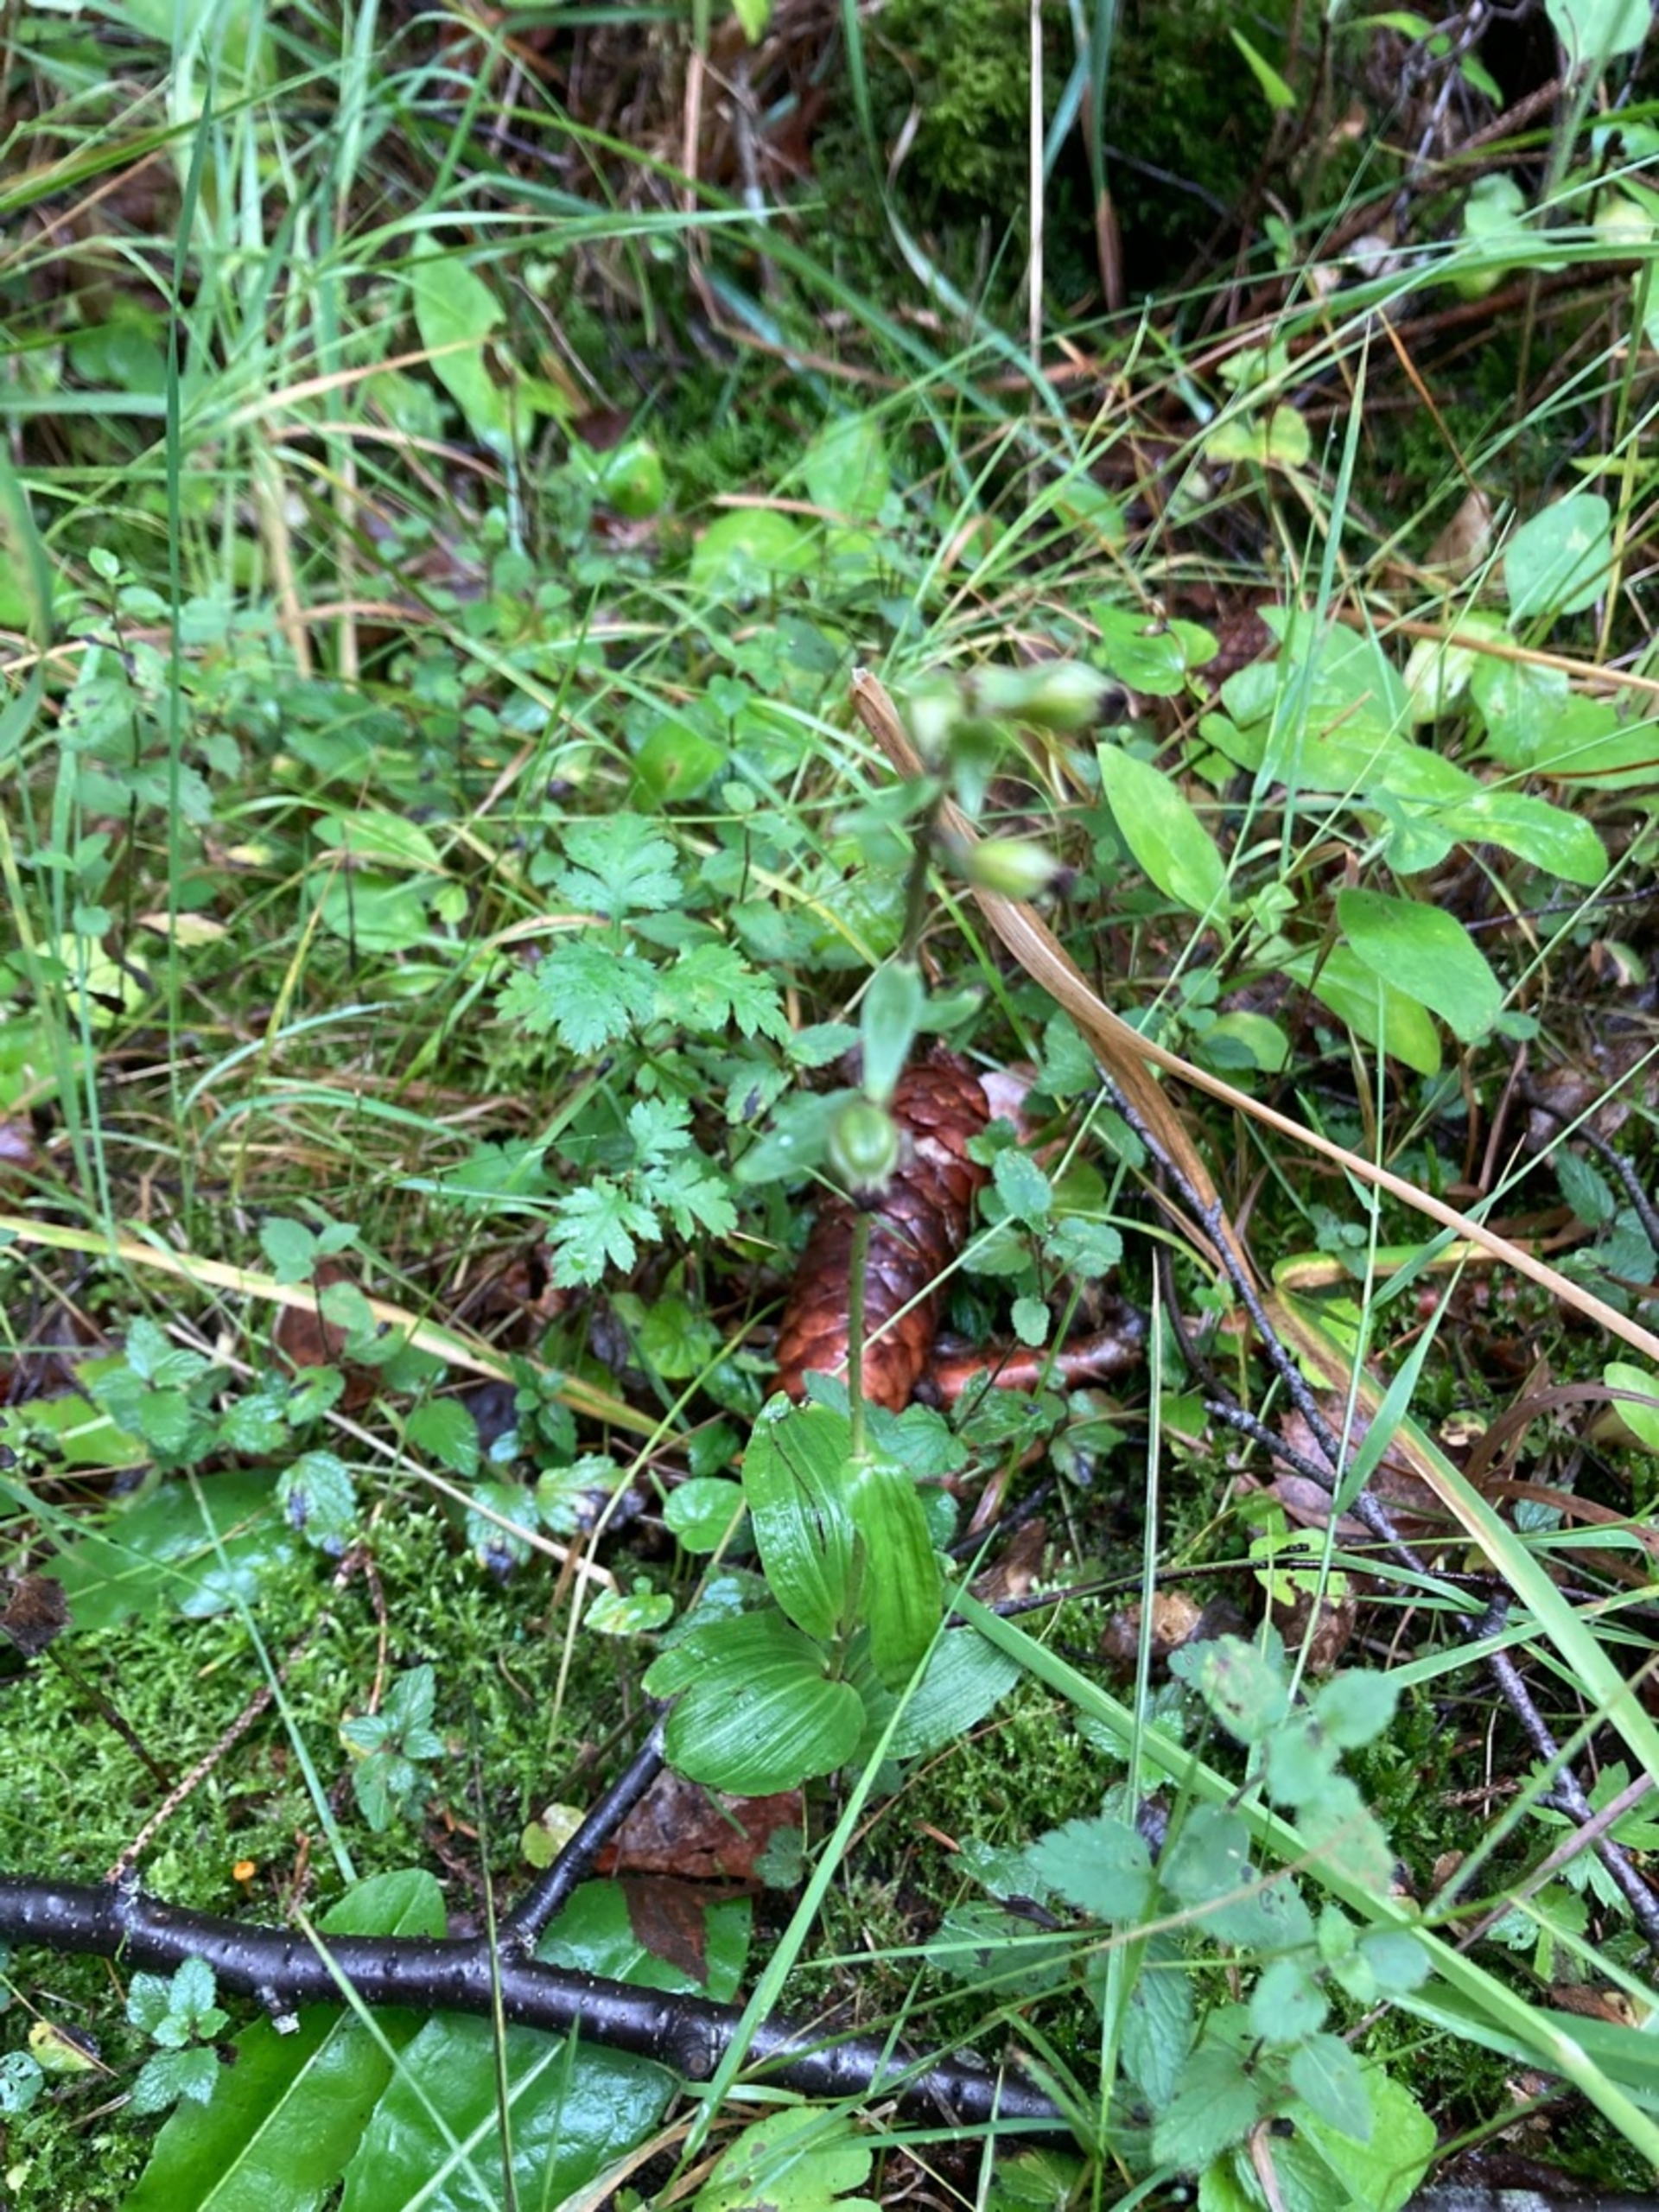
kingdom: Plantae
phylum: Tracheophyta
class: Liliopsida
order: Asparagales
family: Orchidaceae
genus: Epipactis
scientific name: Epipactis helleborine
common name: Skov-hullæbe
